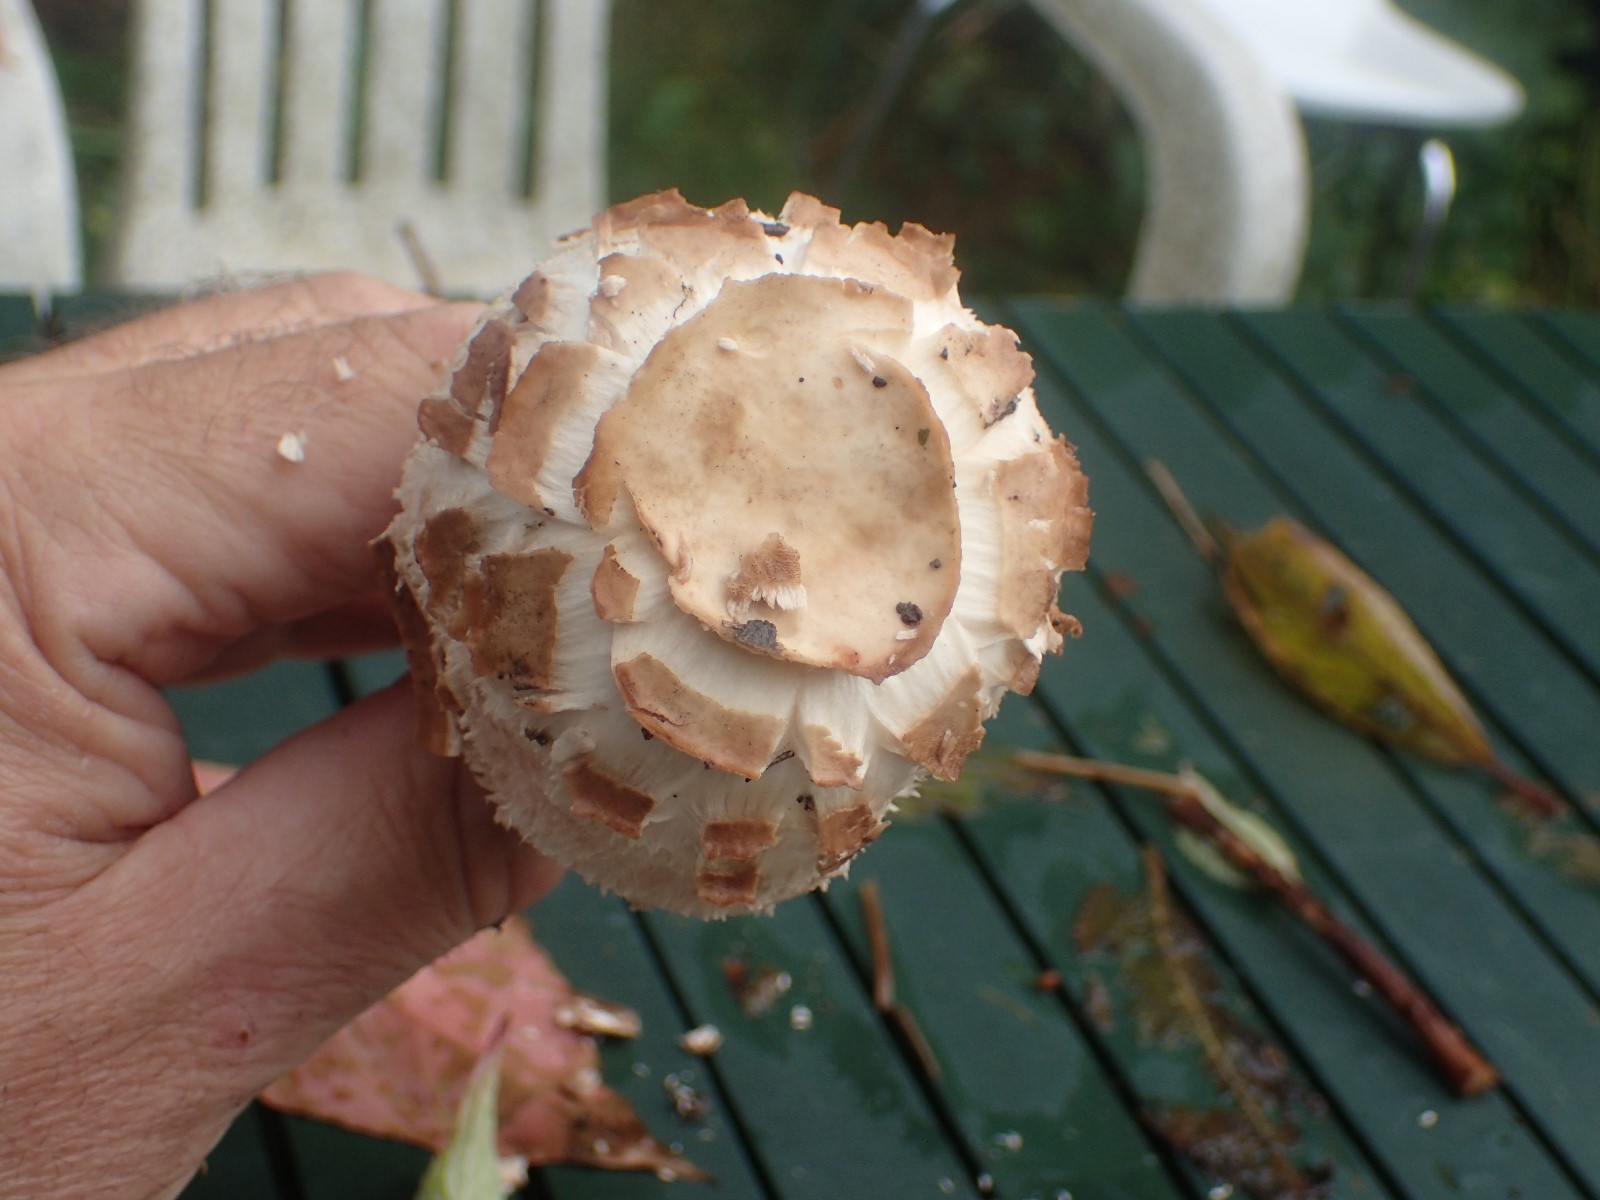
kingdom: Fungi
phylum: Basidiomycota
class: Agaricomycetes
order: Agaricales
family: Agaricaceae
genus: Chlorophyllum
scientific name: Chlorophyllum brunneum
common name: giftig rabarberhat
